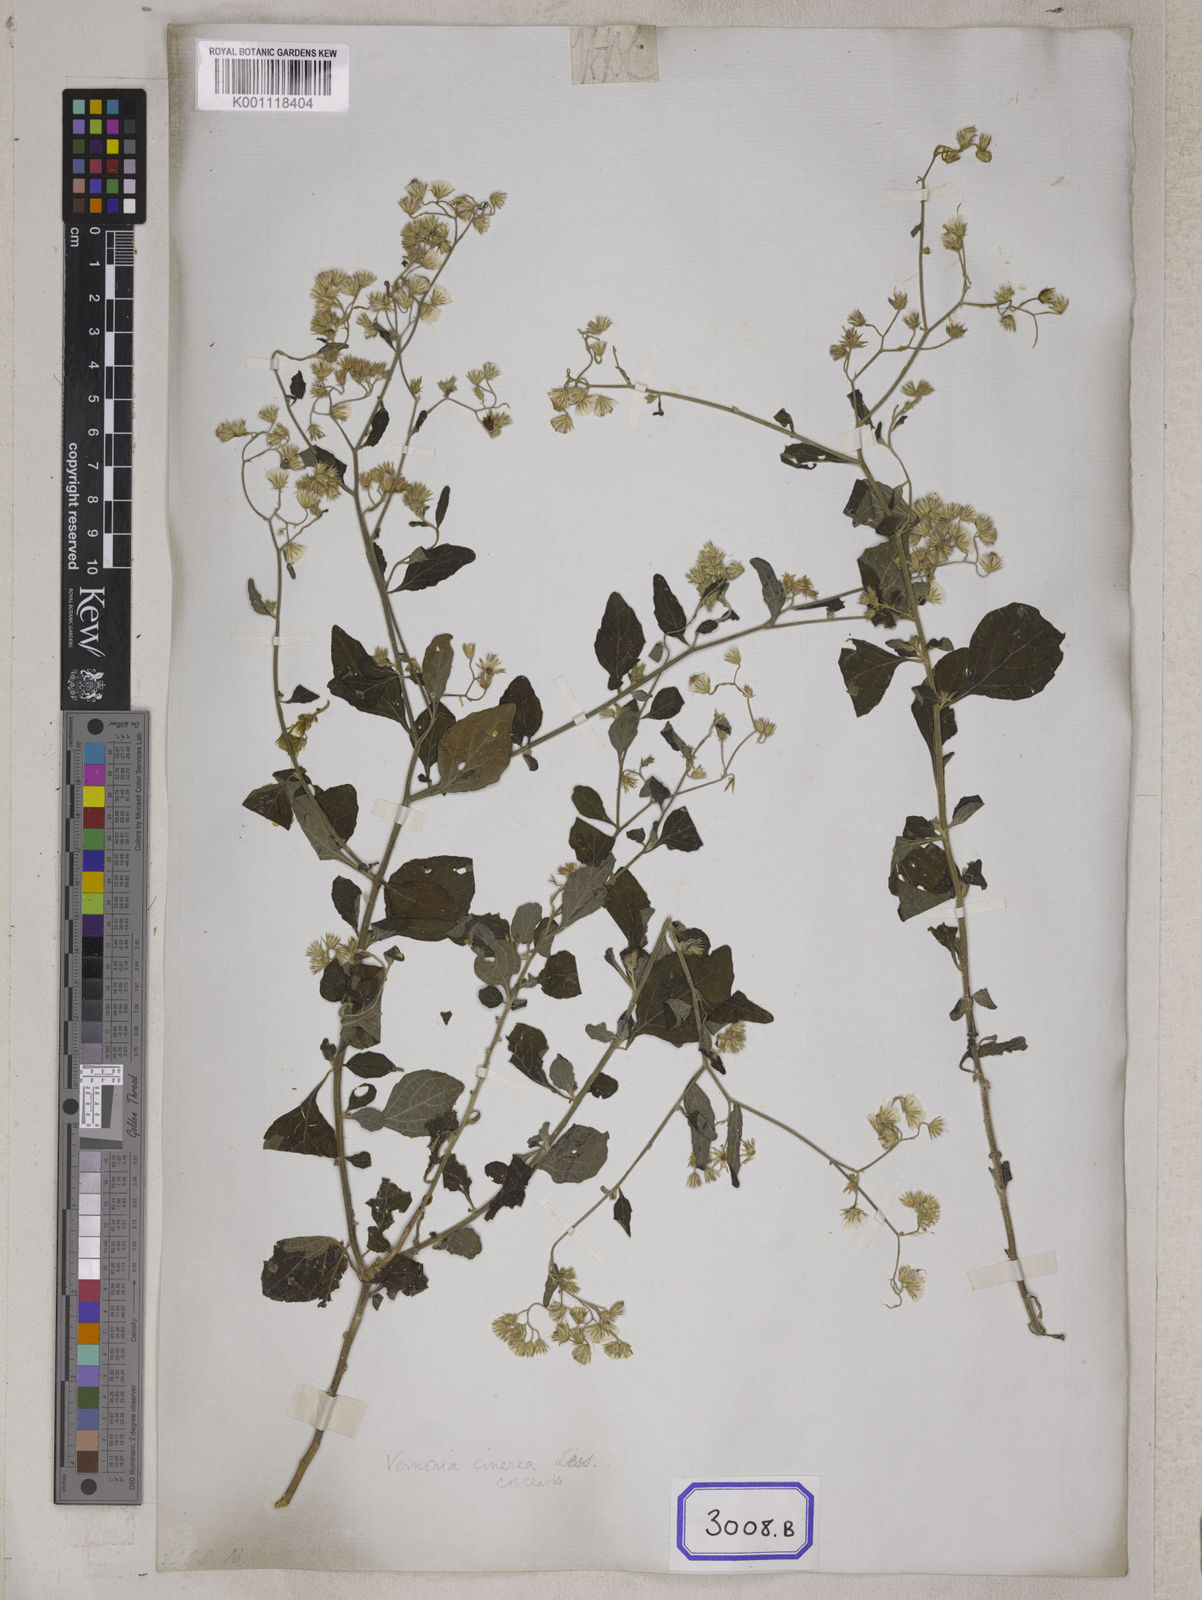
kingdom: Plantae
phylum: Tracheophyta
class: Magnoliopsida
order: Asterales
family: Asteraceae
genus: Cyanthillium
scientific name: Cyanthillium cinereum
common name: Little ironweed
